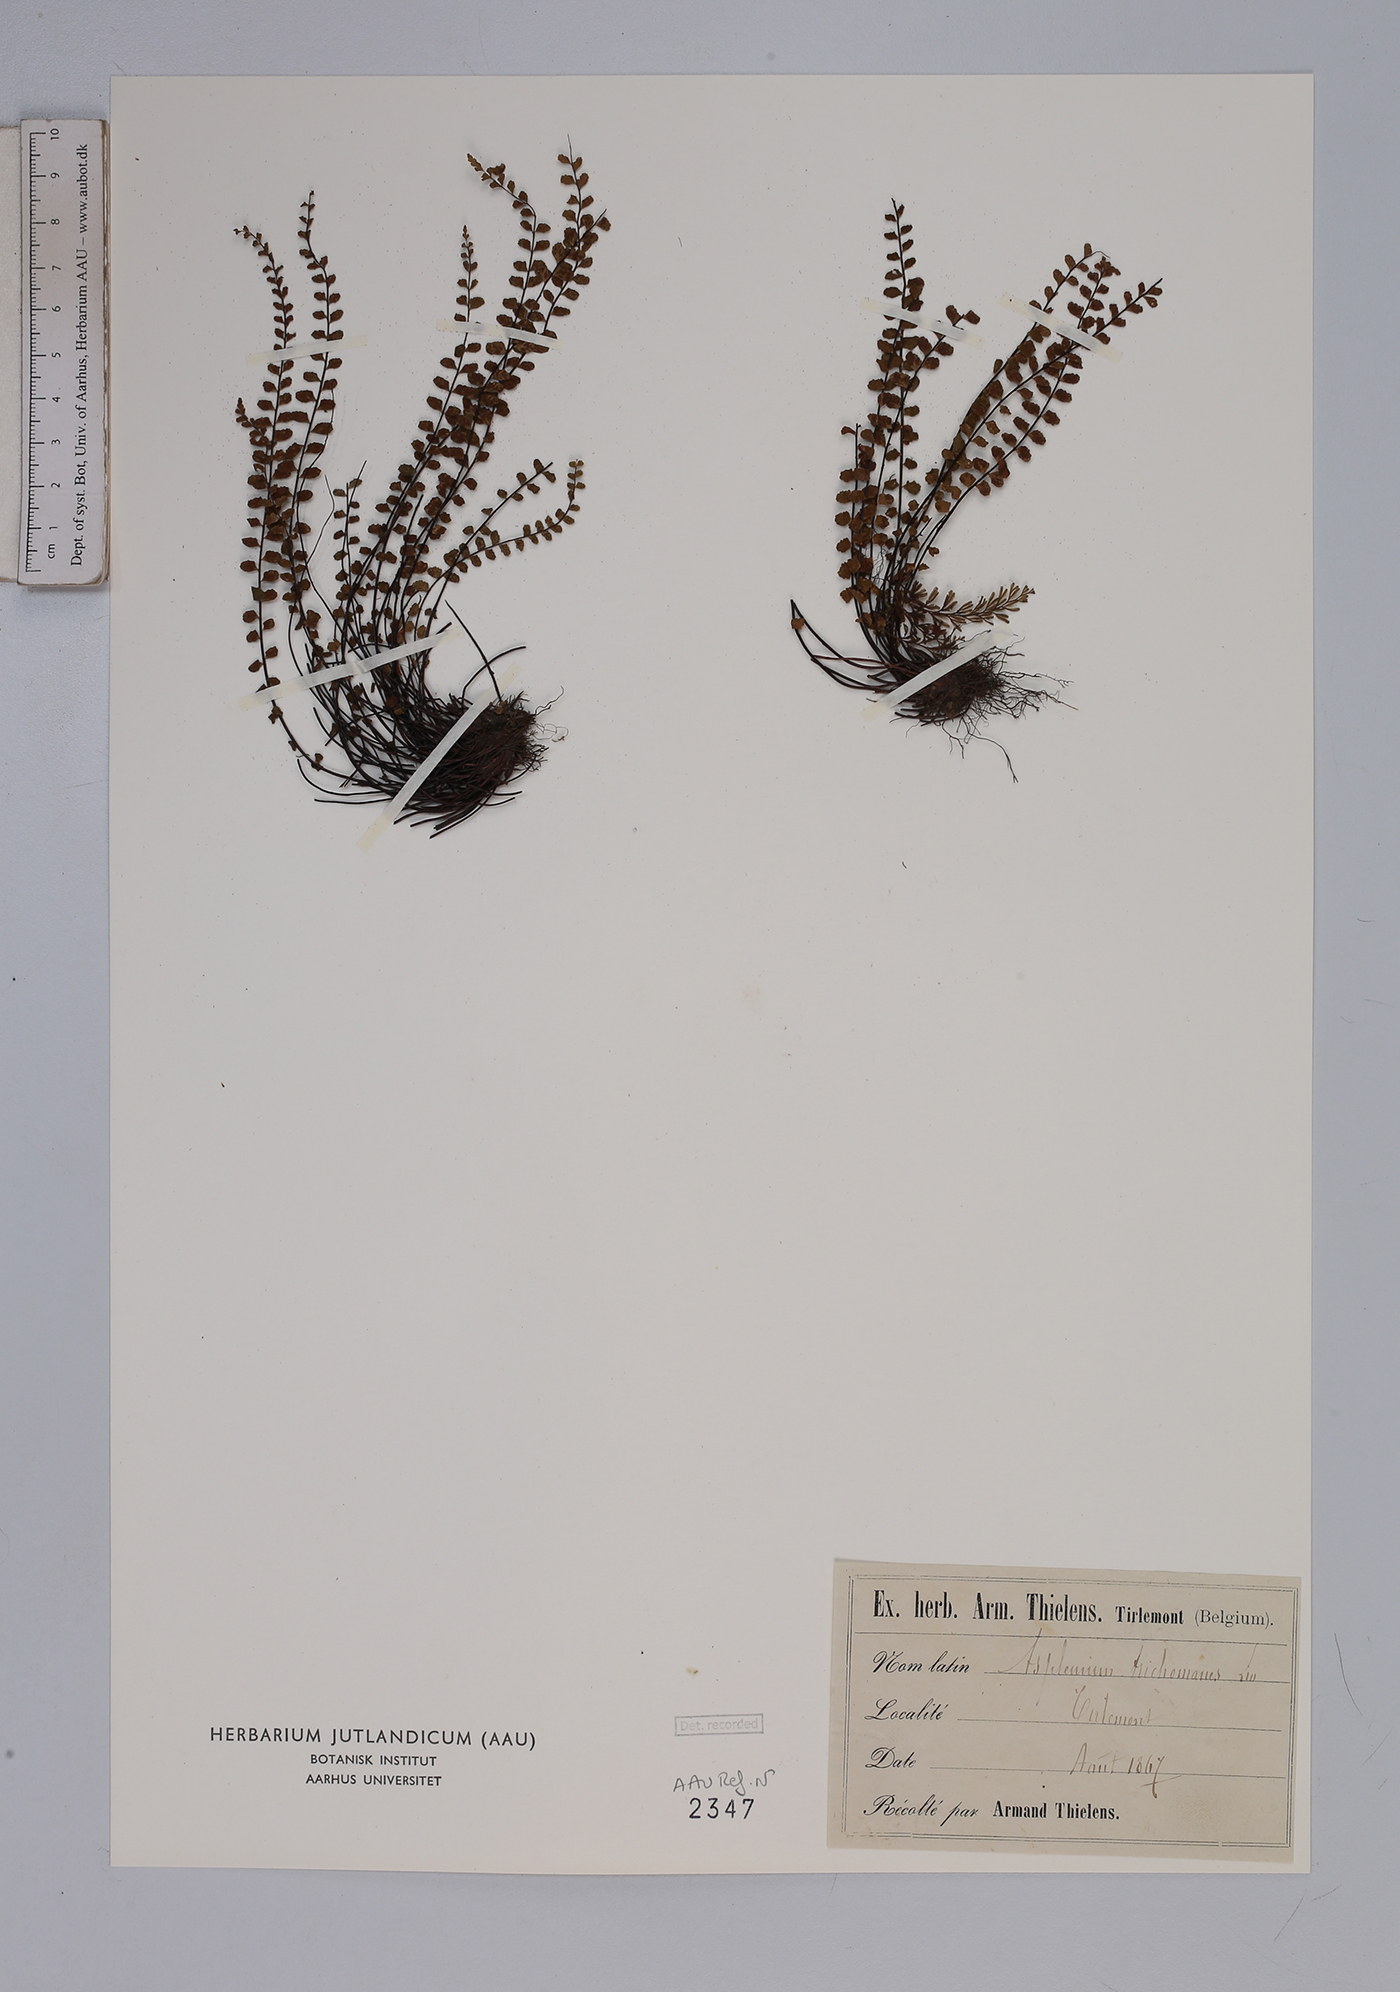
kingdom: Plantae
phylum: Tracheophyta
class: Polypodiopsida
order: Polypodiales
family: Aspleniaceae
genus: Asplenium
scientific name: Asplenium trichomanes
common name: Maidenhair spleenwort
